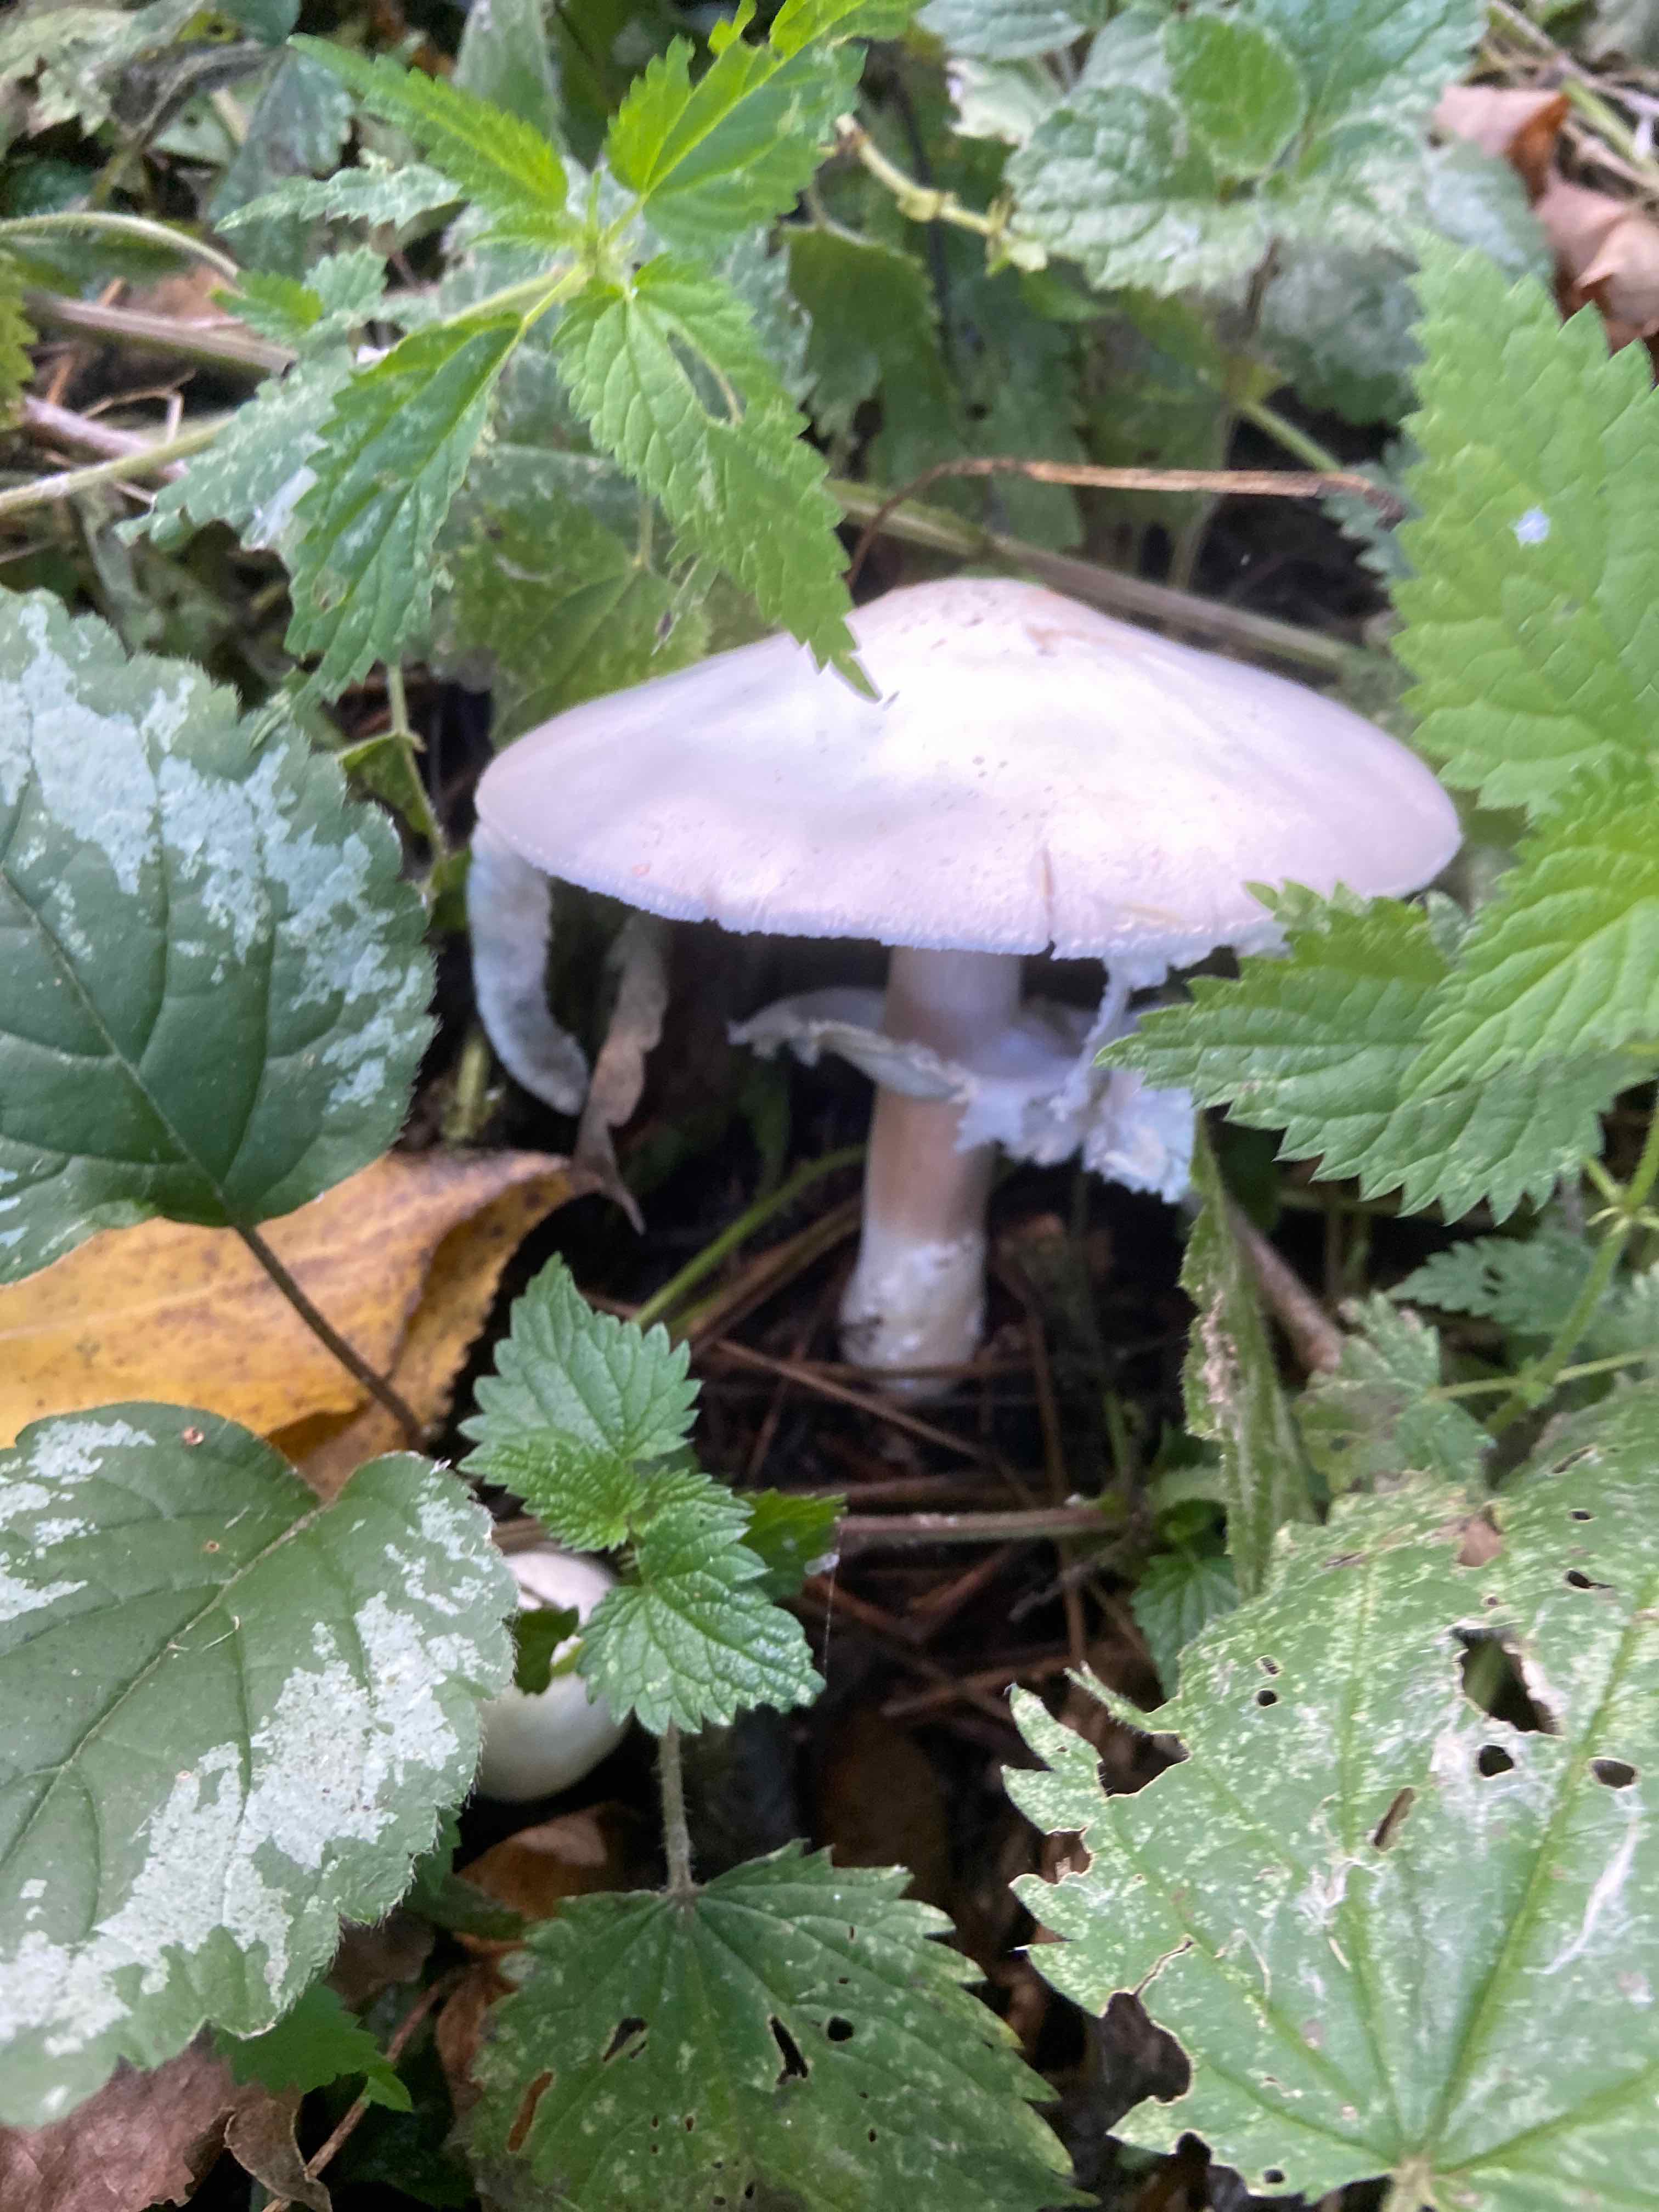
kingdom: Fungi
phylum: Basidiomycota
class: Agaricomycetes
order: Agaricales
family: Agaricaceae
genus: Agaricus
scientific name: Agaricus
